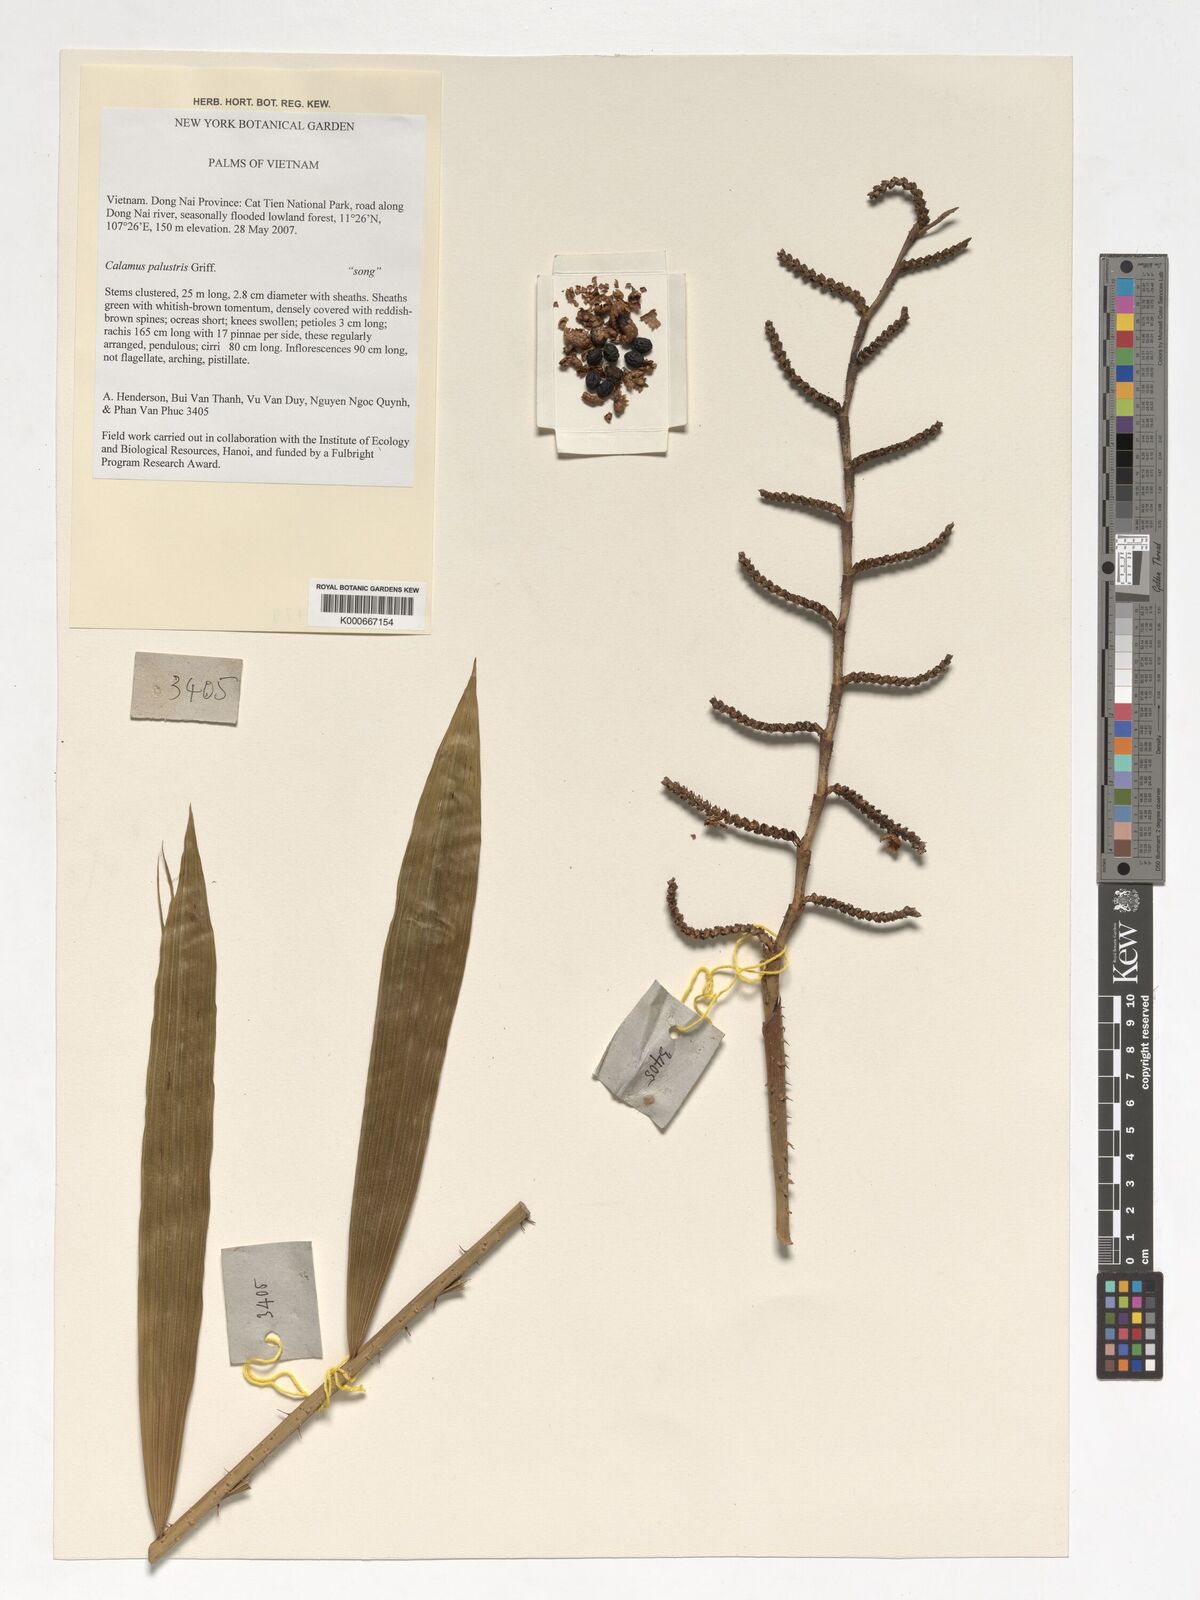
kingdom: Plantae
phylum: Tracheophyta
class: Liliopsida
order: Arecales
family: Arecaceae
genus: Calamus
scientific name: Calamus latifolius
